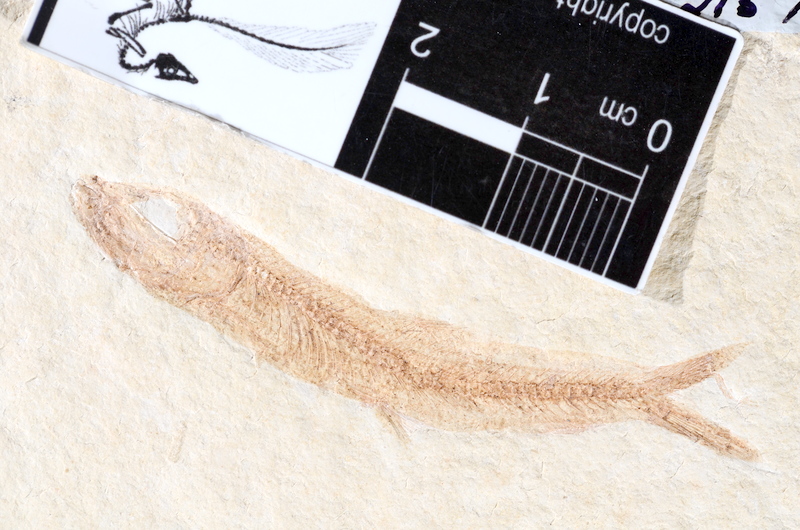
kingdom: Animalia
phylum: Chordata
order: Salmoniformes
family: Orthogonikleithridae
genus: Leptolepides
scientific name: Leptolepides sprattiformis
